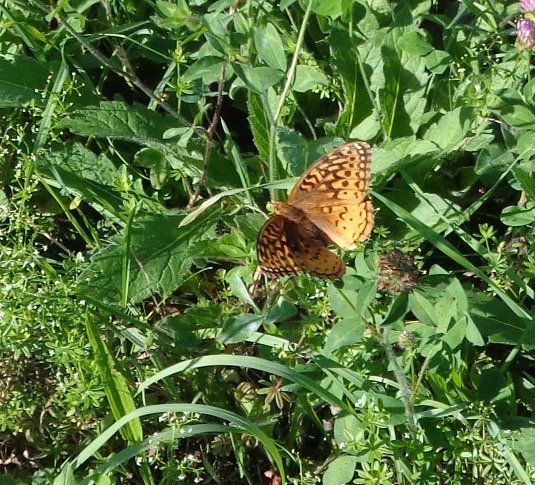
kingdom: Animalia
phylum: Arthropoda
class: Insecta
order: Lepidoptera
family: Nymphalidae
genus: Clossiana
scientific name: Clossiana toddi
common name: Meadow Fritillary
